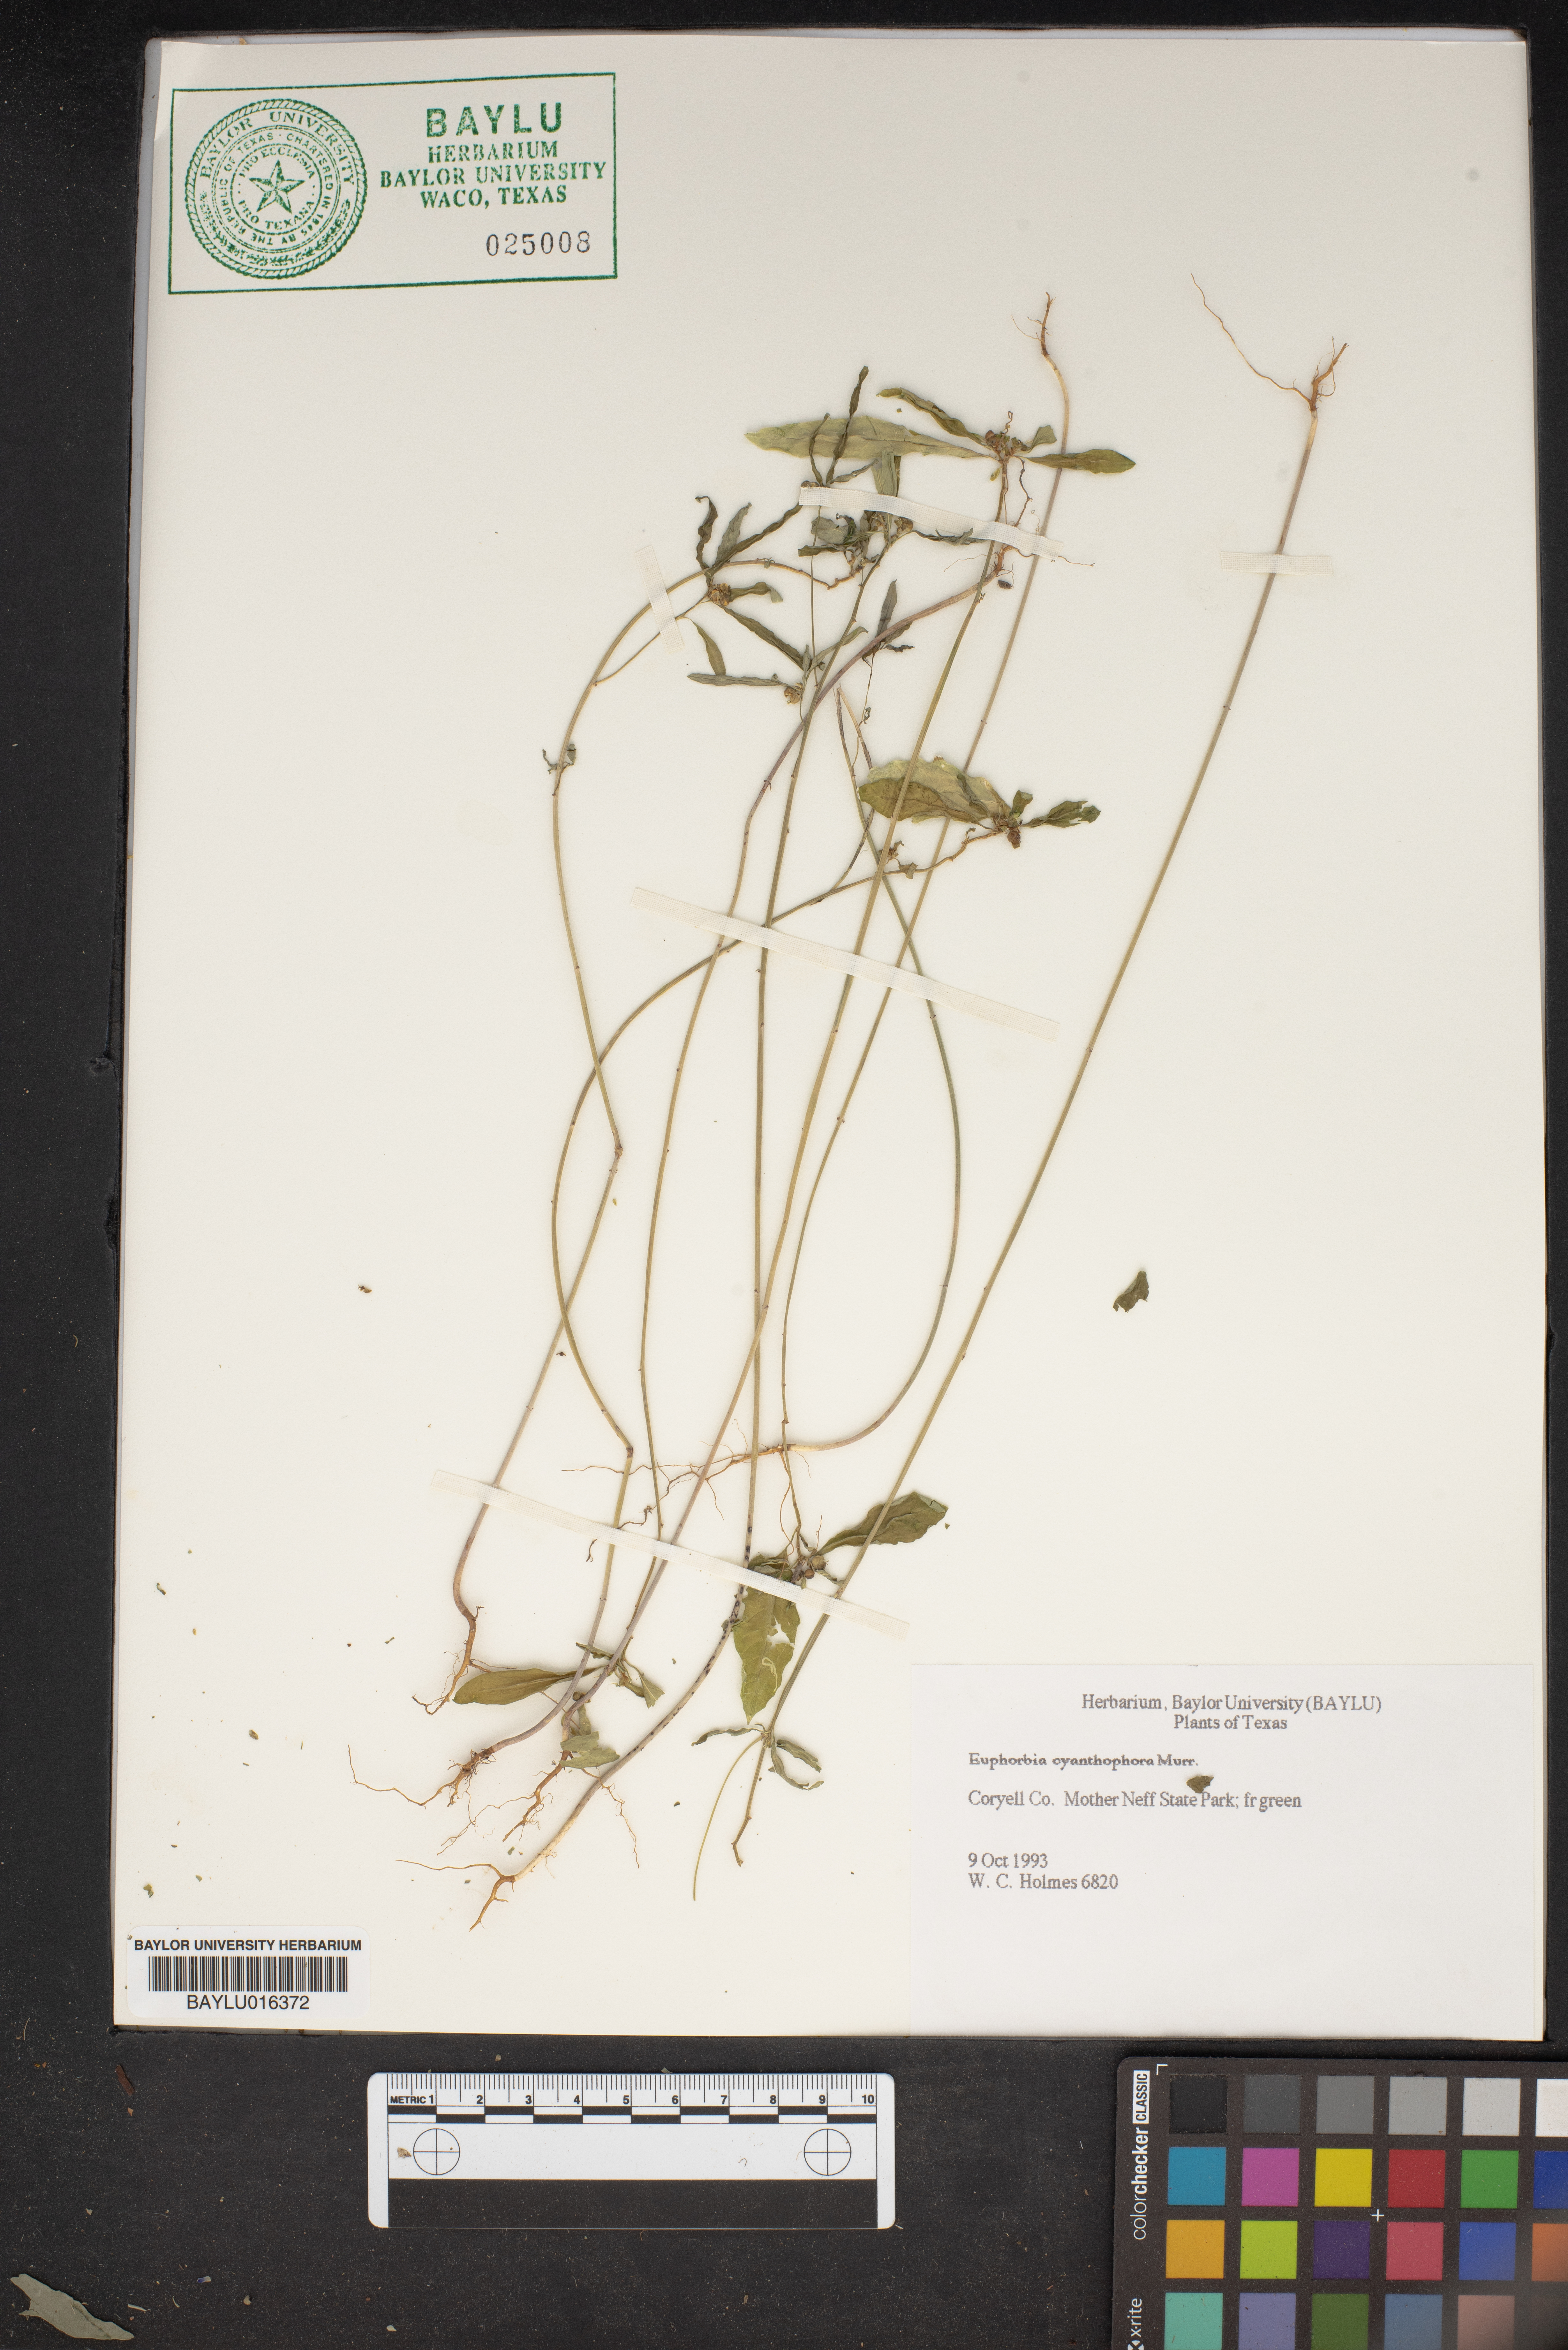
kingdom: Plantae
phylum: Tracheophyta
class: Magnoliopsida
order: Malpighiales
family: Euphorbiaceae
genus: Euphorbia
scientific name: Euphorbia heterophylla
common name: Mexican fireplant
